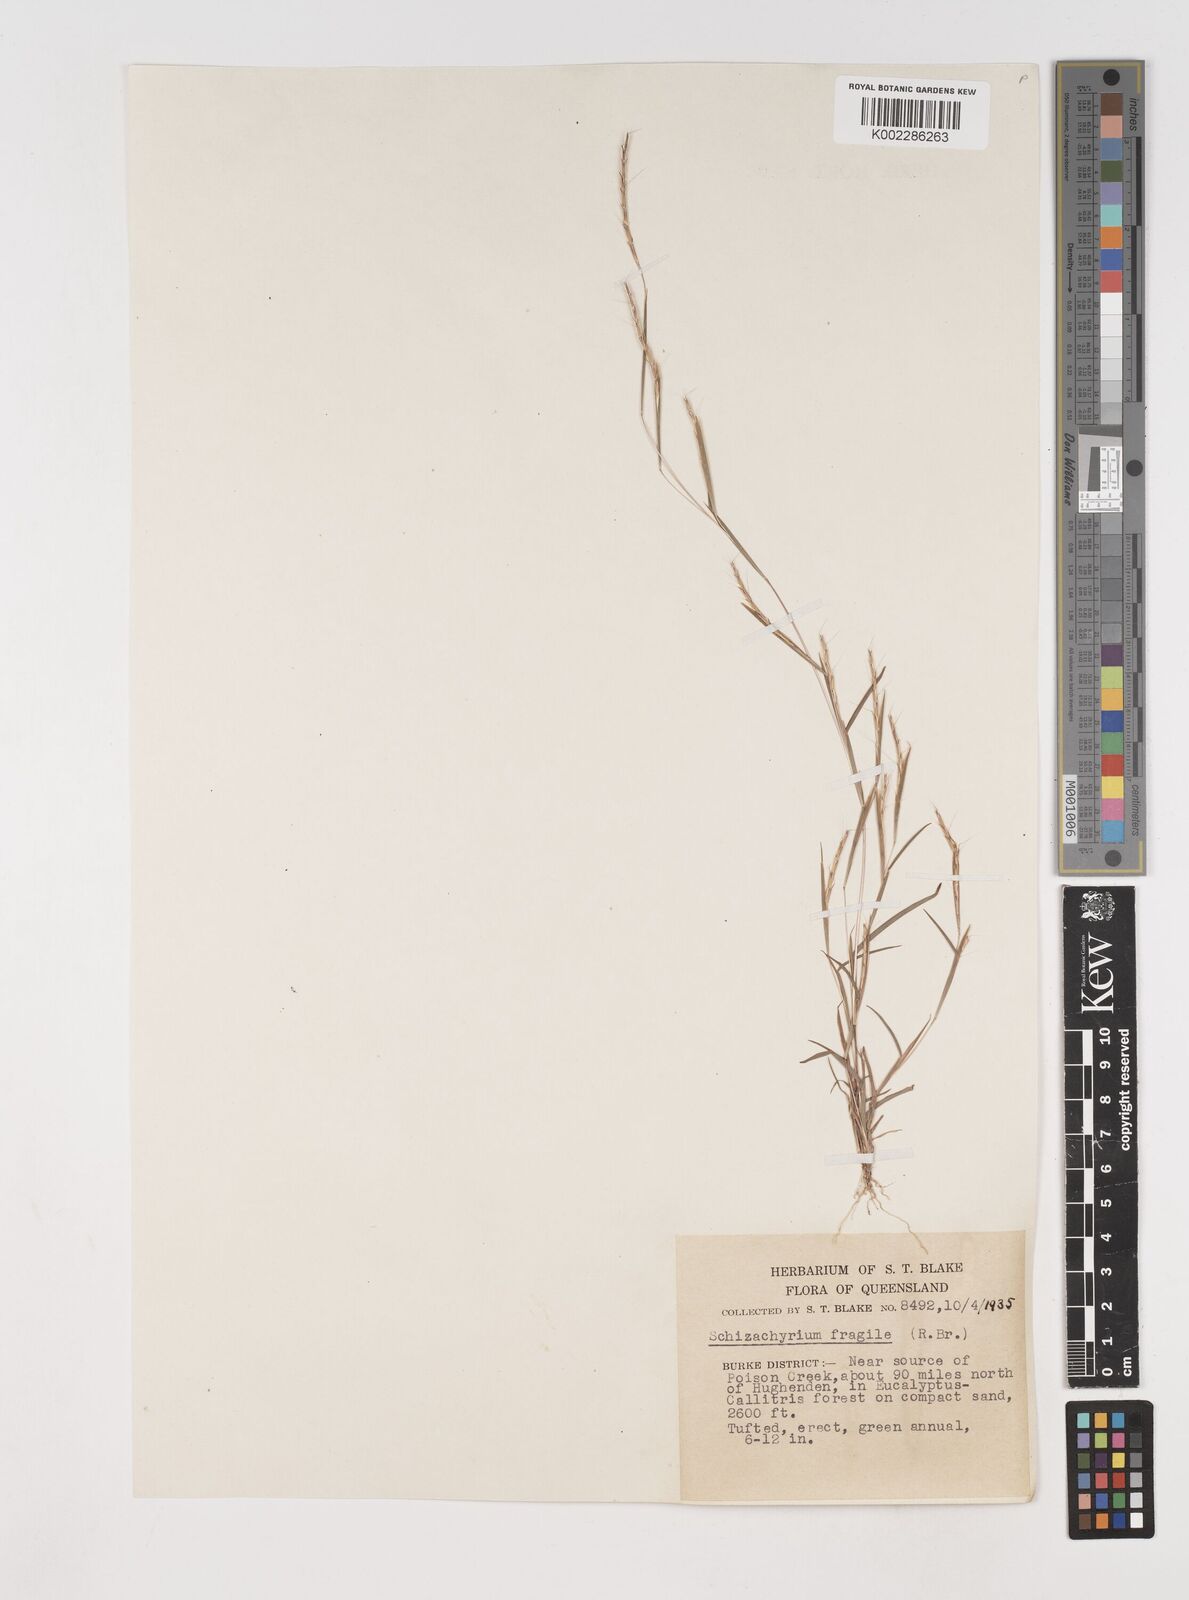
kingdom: Plantae
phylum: Tracheophyta
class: Liliopsida
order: Poales
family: Poaceae
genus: Schizachyrium
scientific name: Schizachyrium pseudeulalia
